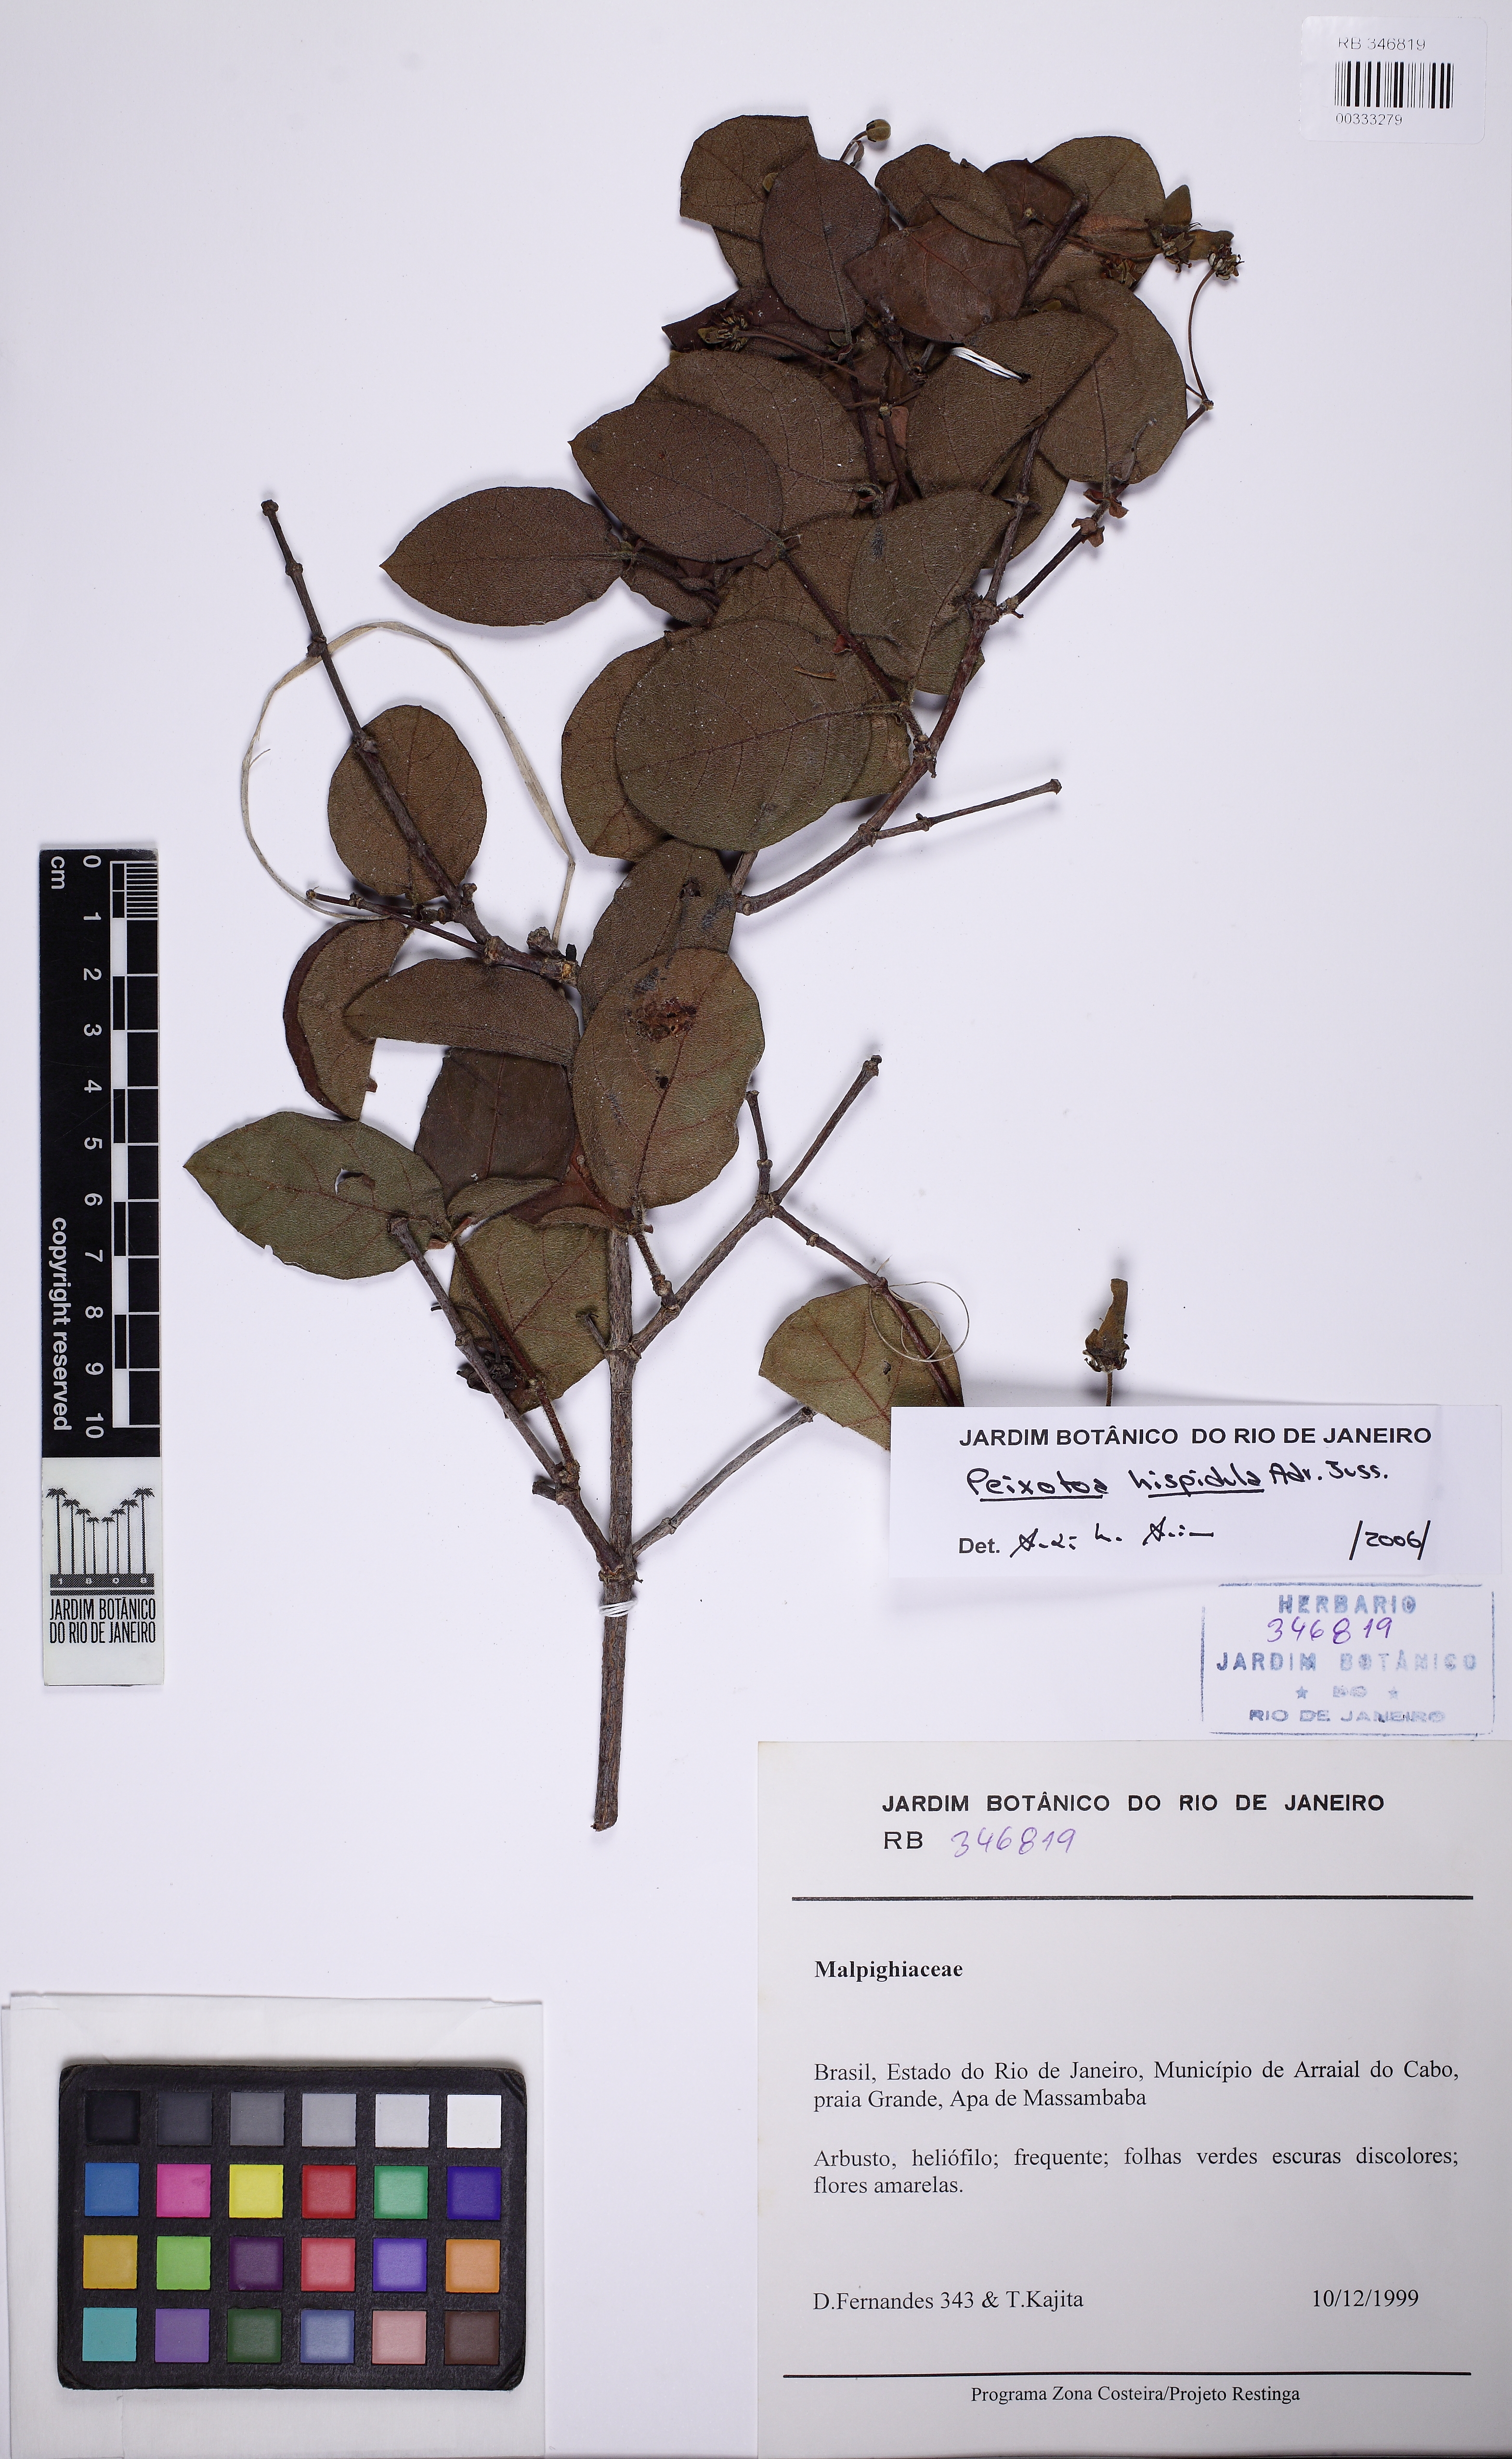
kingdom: Plantae
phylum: Tracheophyta
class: Magnoliopsida
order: Malpighiales
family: Malpighiaceae
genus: Peixotoa
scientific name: Peixotoa hispidula
